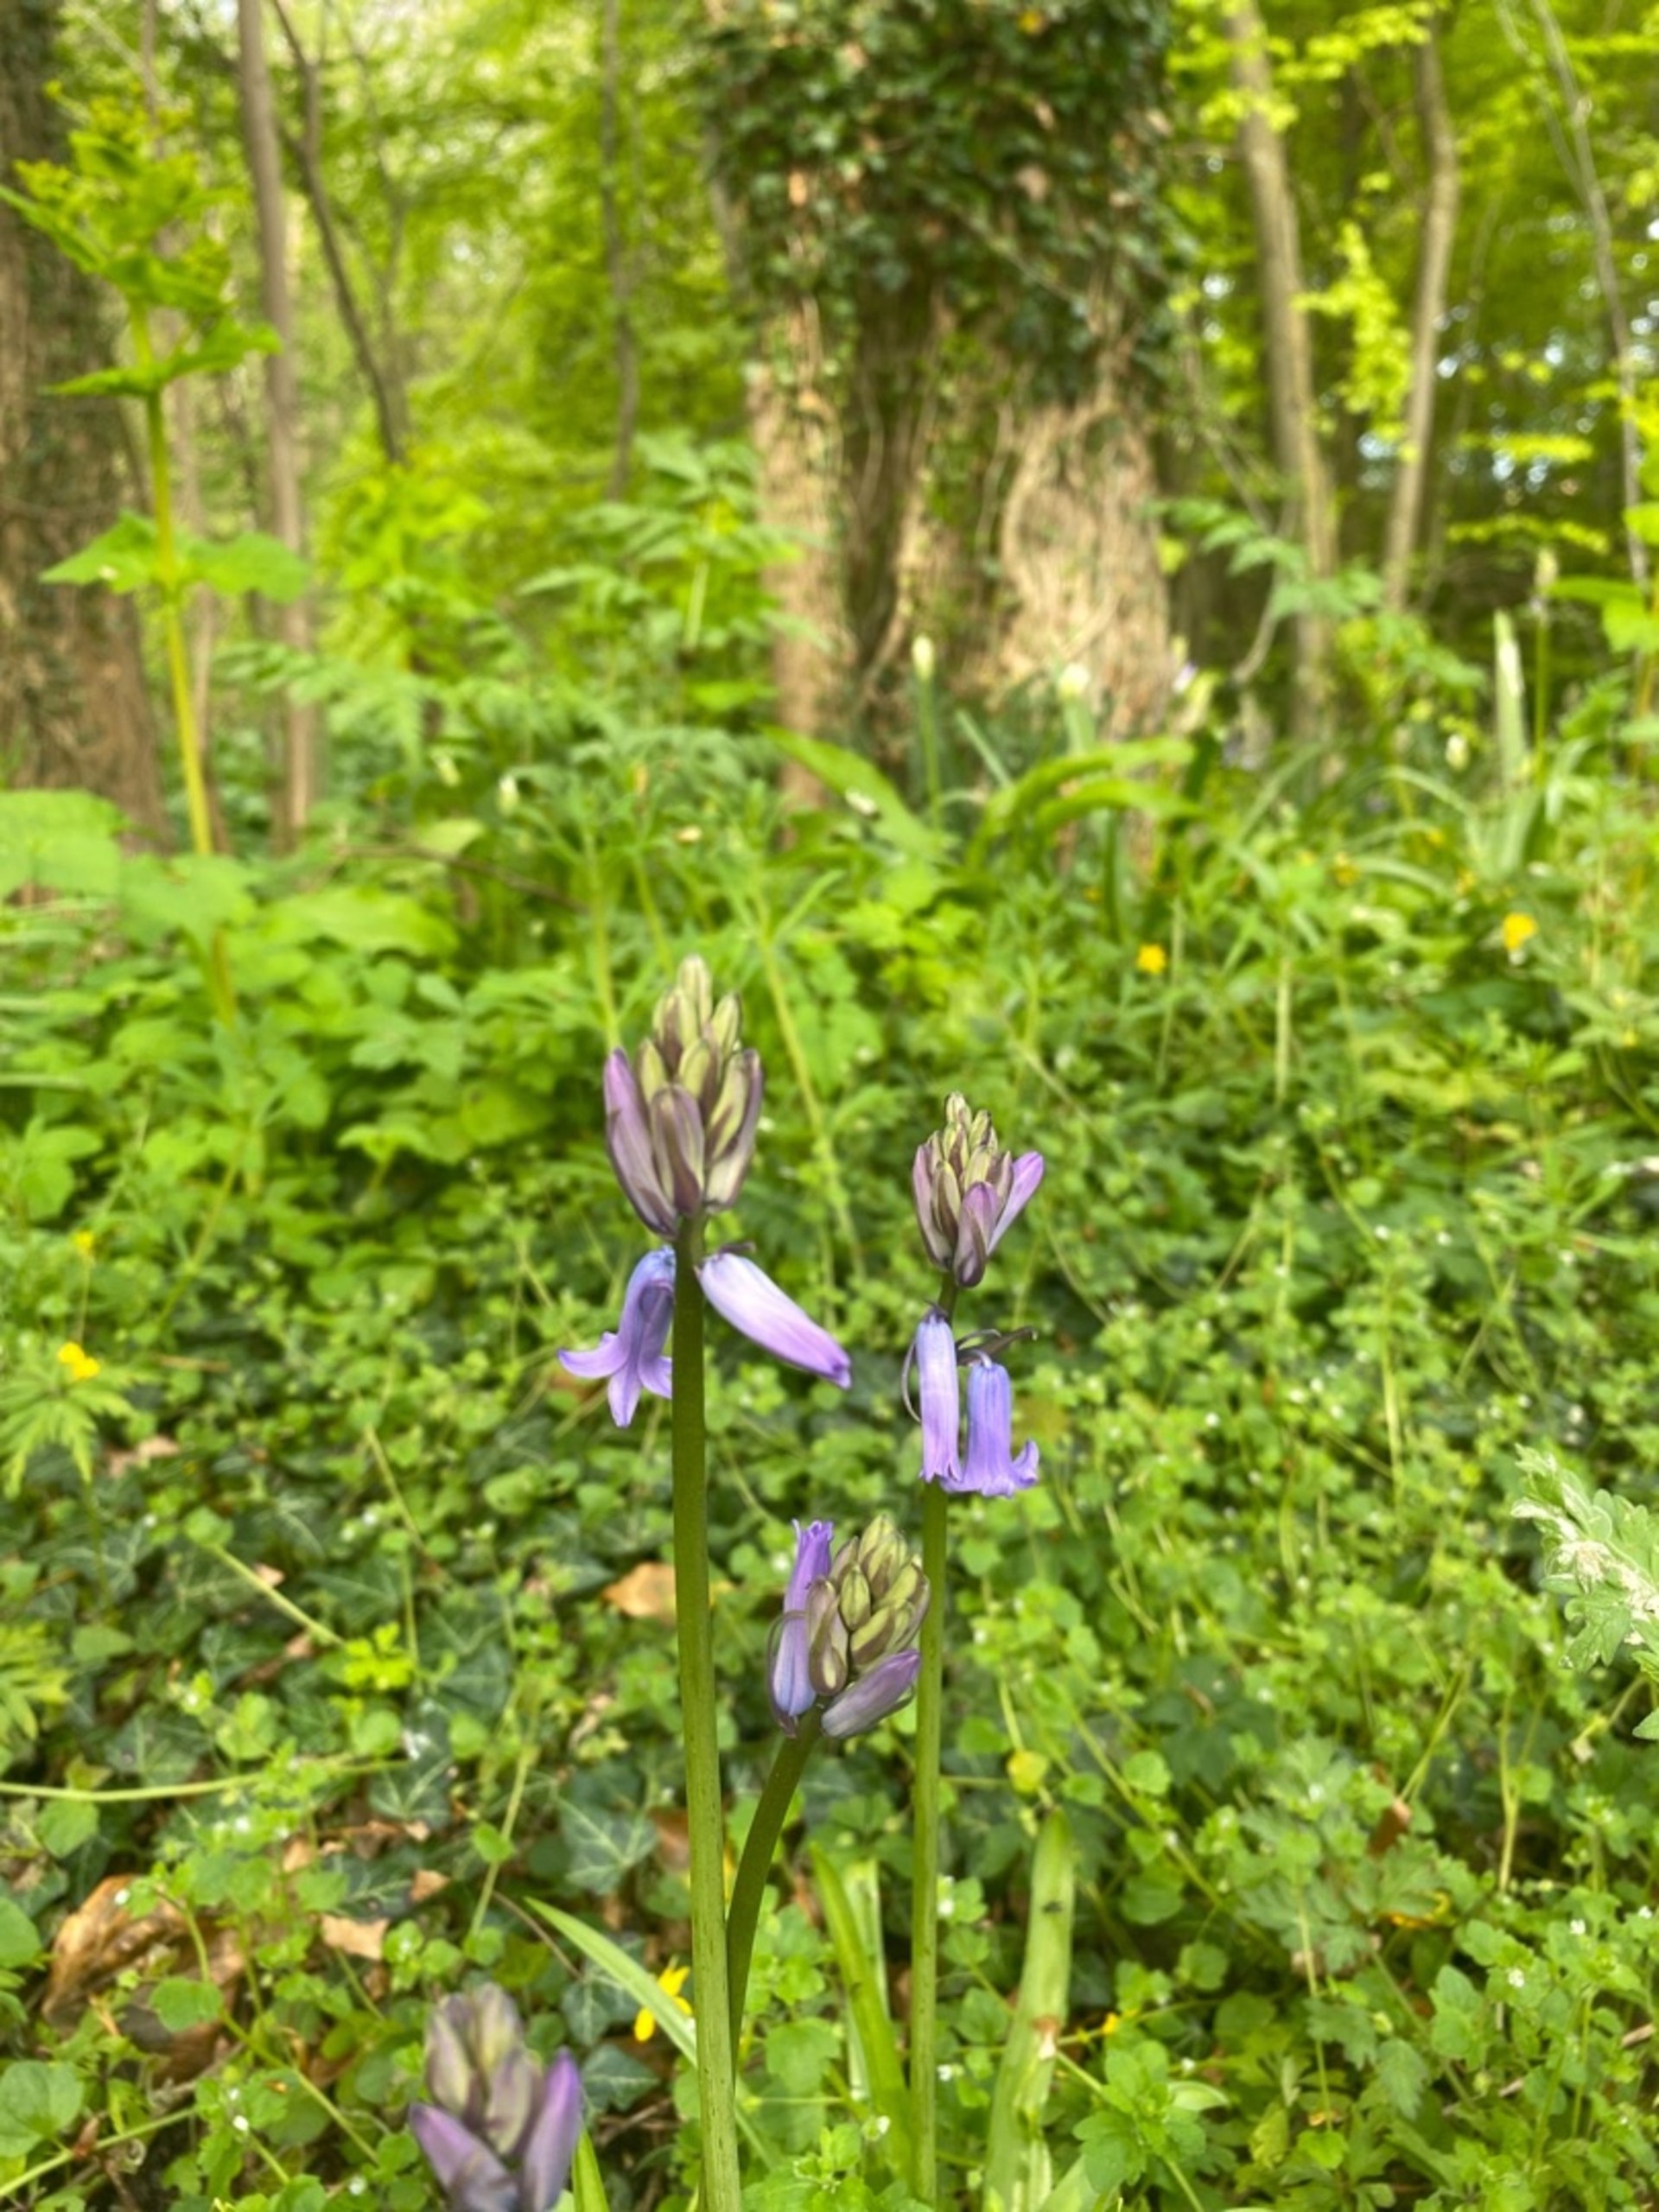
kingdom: Plantae
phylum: Tracheophyta
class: Liliopsida
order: Asparagales
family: Asparagaceae
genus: Hyacinthoides
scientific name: Hyacinthoides massartiana
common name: Hybrid-klokkeskilla
